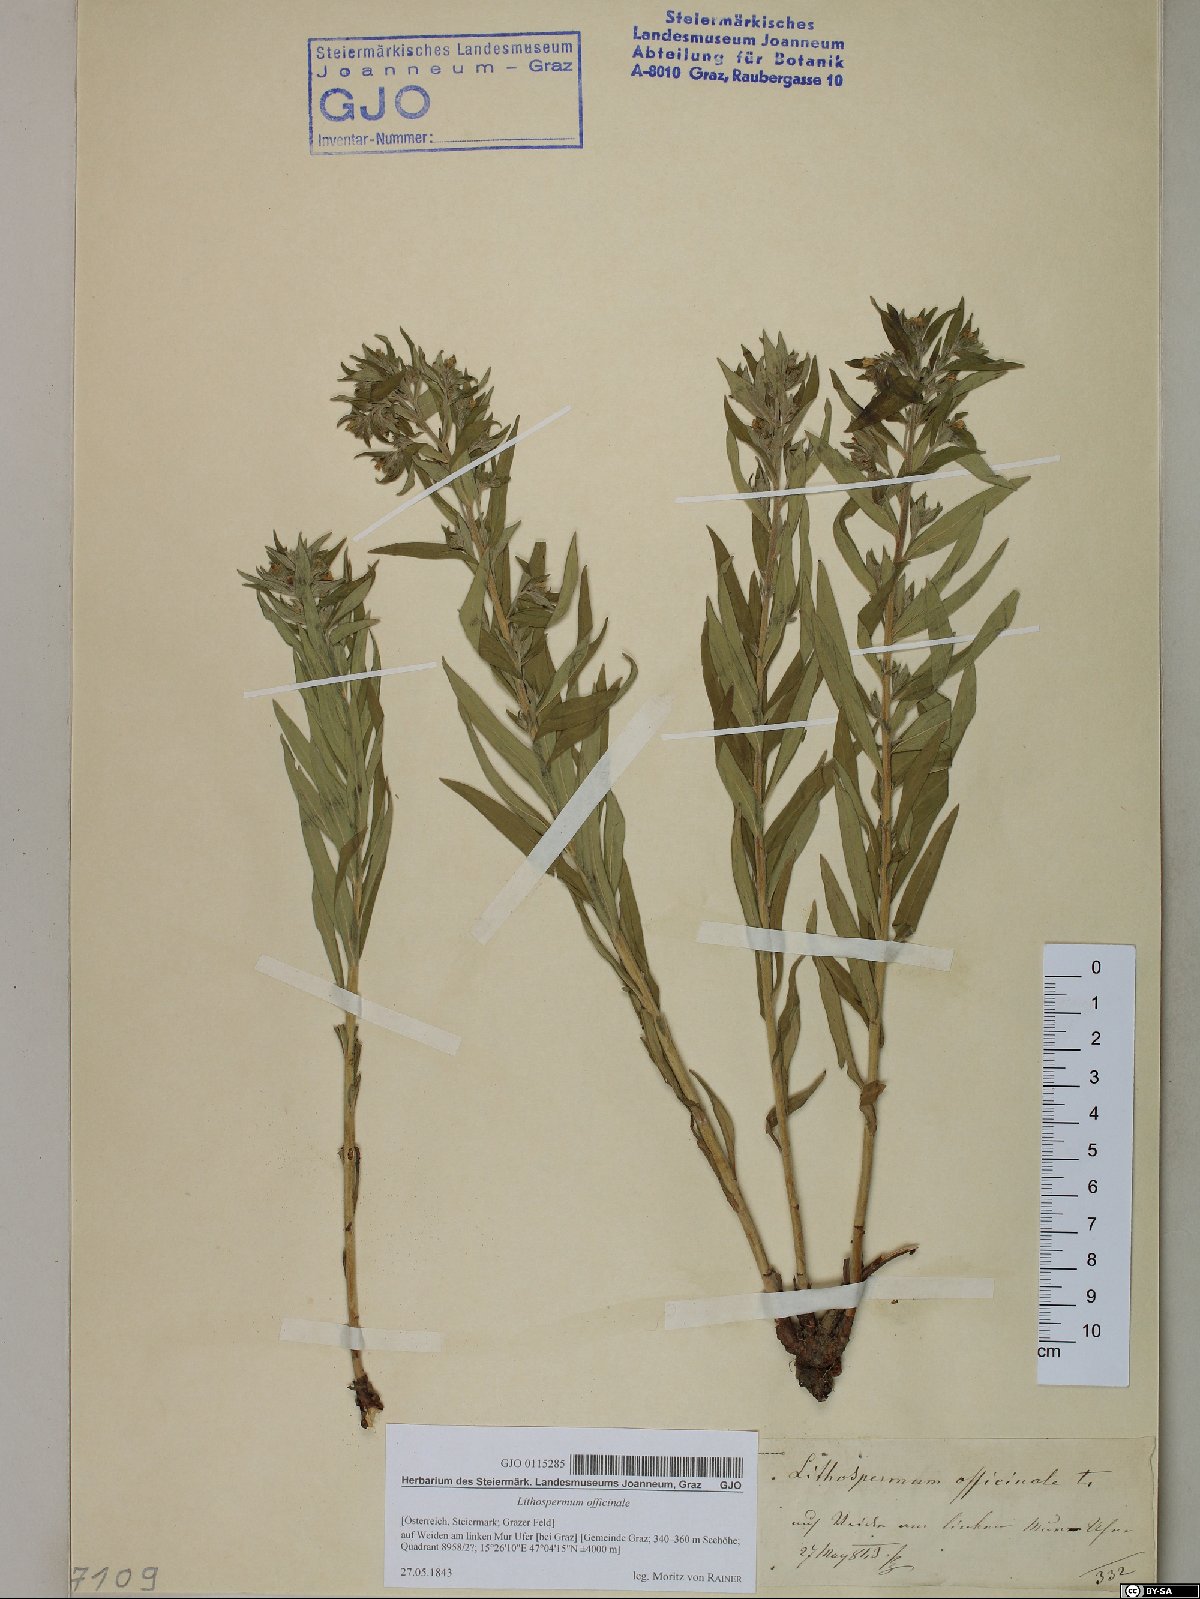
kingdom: Plantae
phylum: Tracheophyta
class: Magnoliopsida
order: Boraginales
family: Boraginaceae
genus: Lithospermum
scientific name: Lithospermum officinale
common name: Common gromwell
